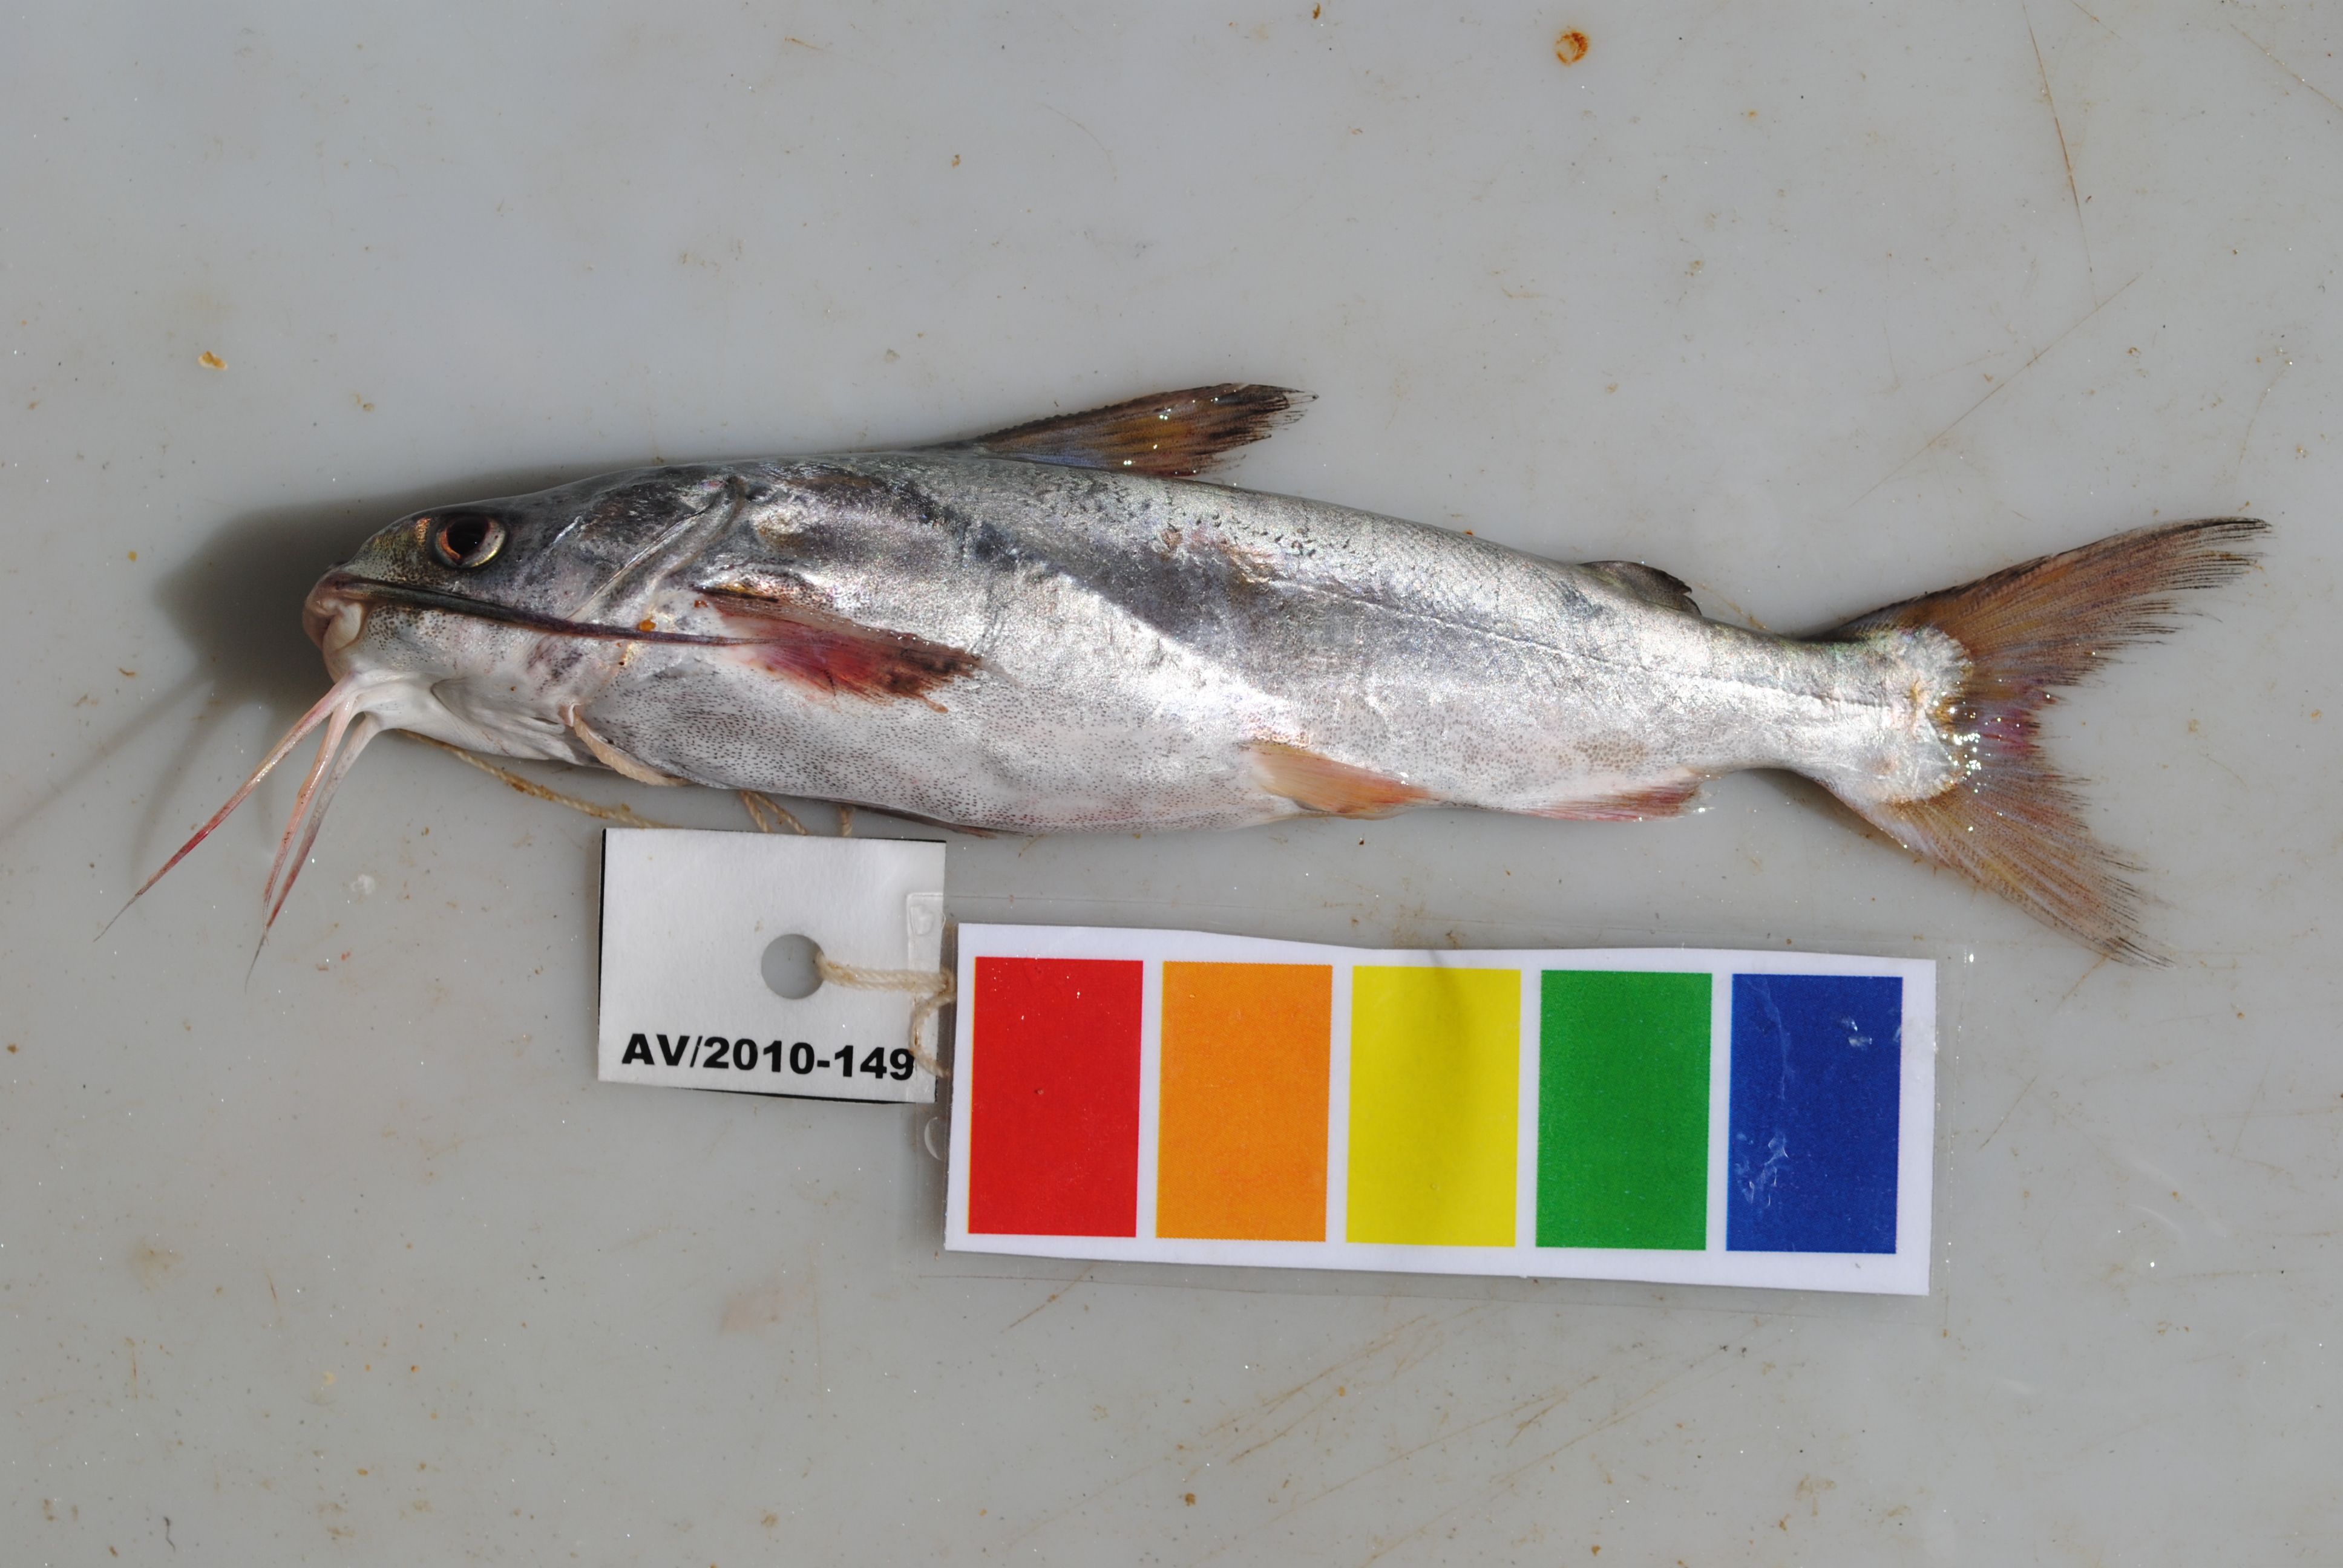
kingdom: Animalia
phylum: Chordata
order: Siluriformes
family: Ariidae
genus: Arius
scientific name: Arius
